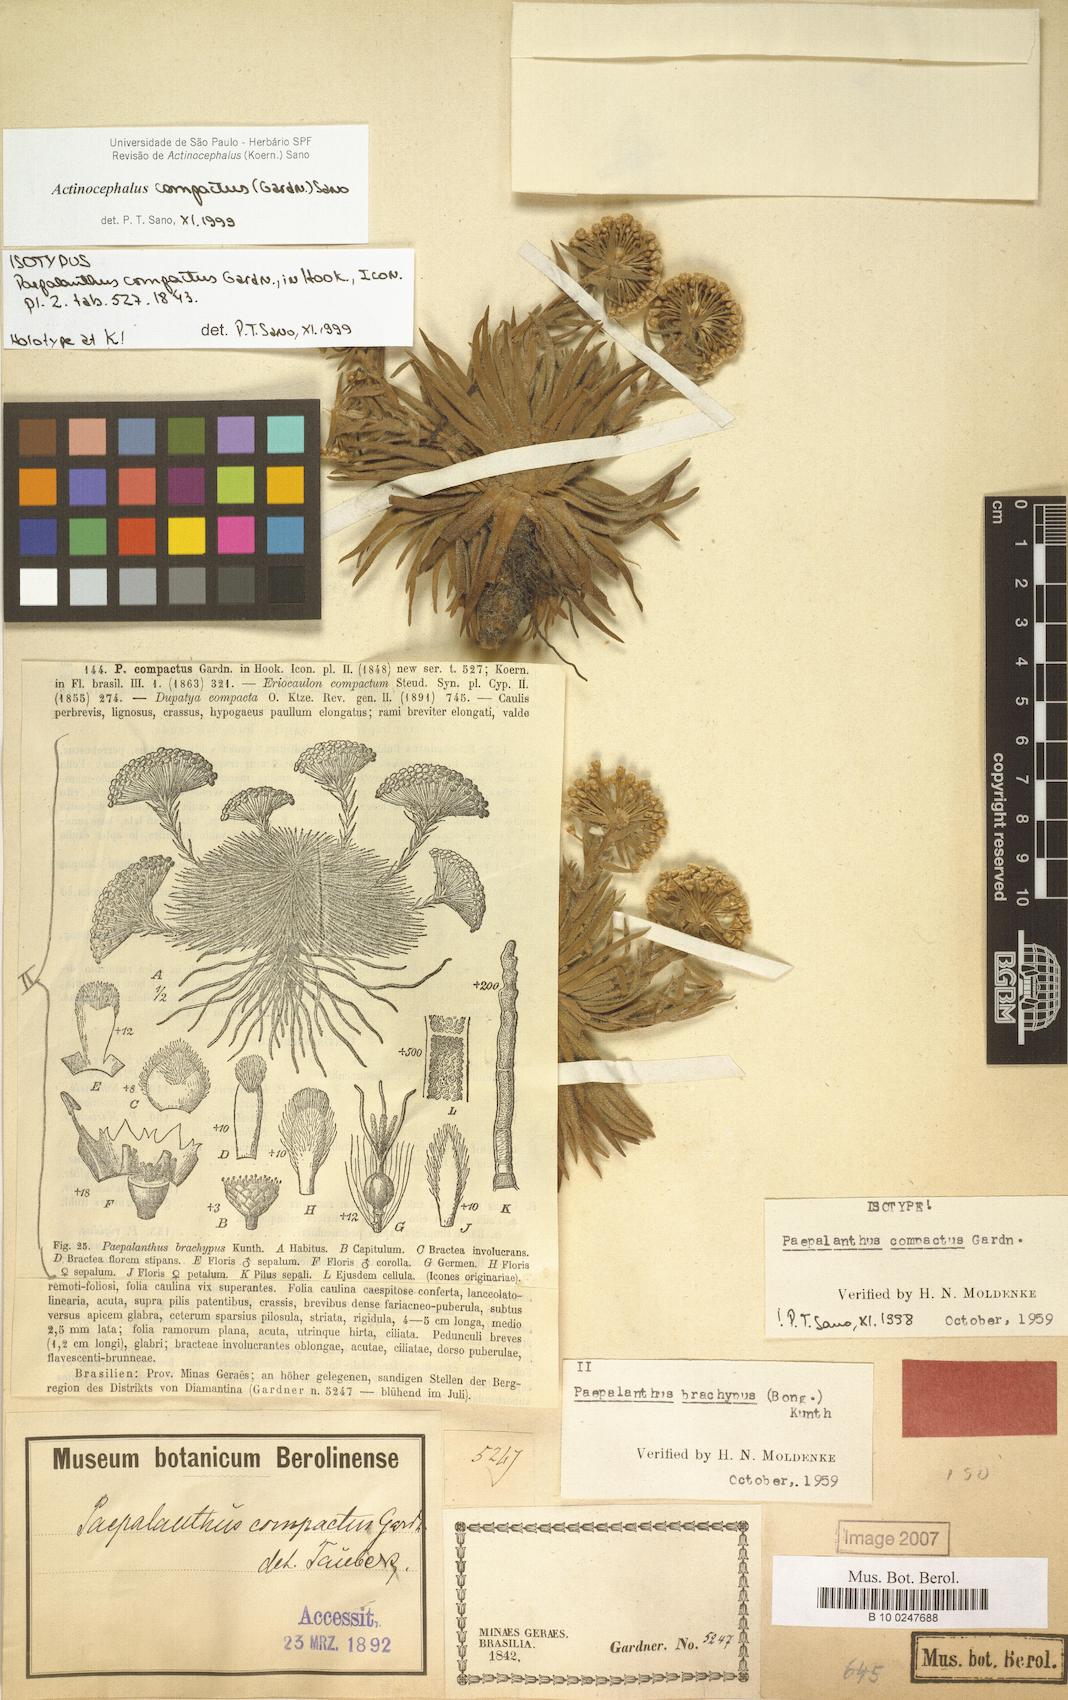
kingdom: Plantae
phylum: Tracheophyta
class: Liliopsida
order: Poales
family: Eriocaulaceae
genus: Paepalanthus
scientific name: Paepalanthus compactus
